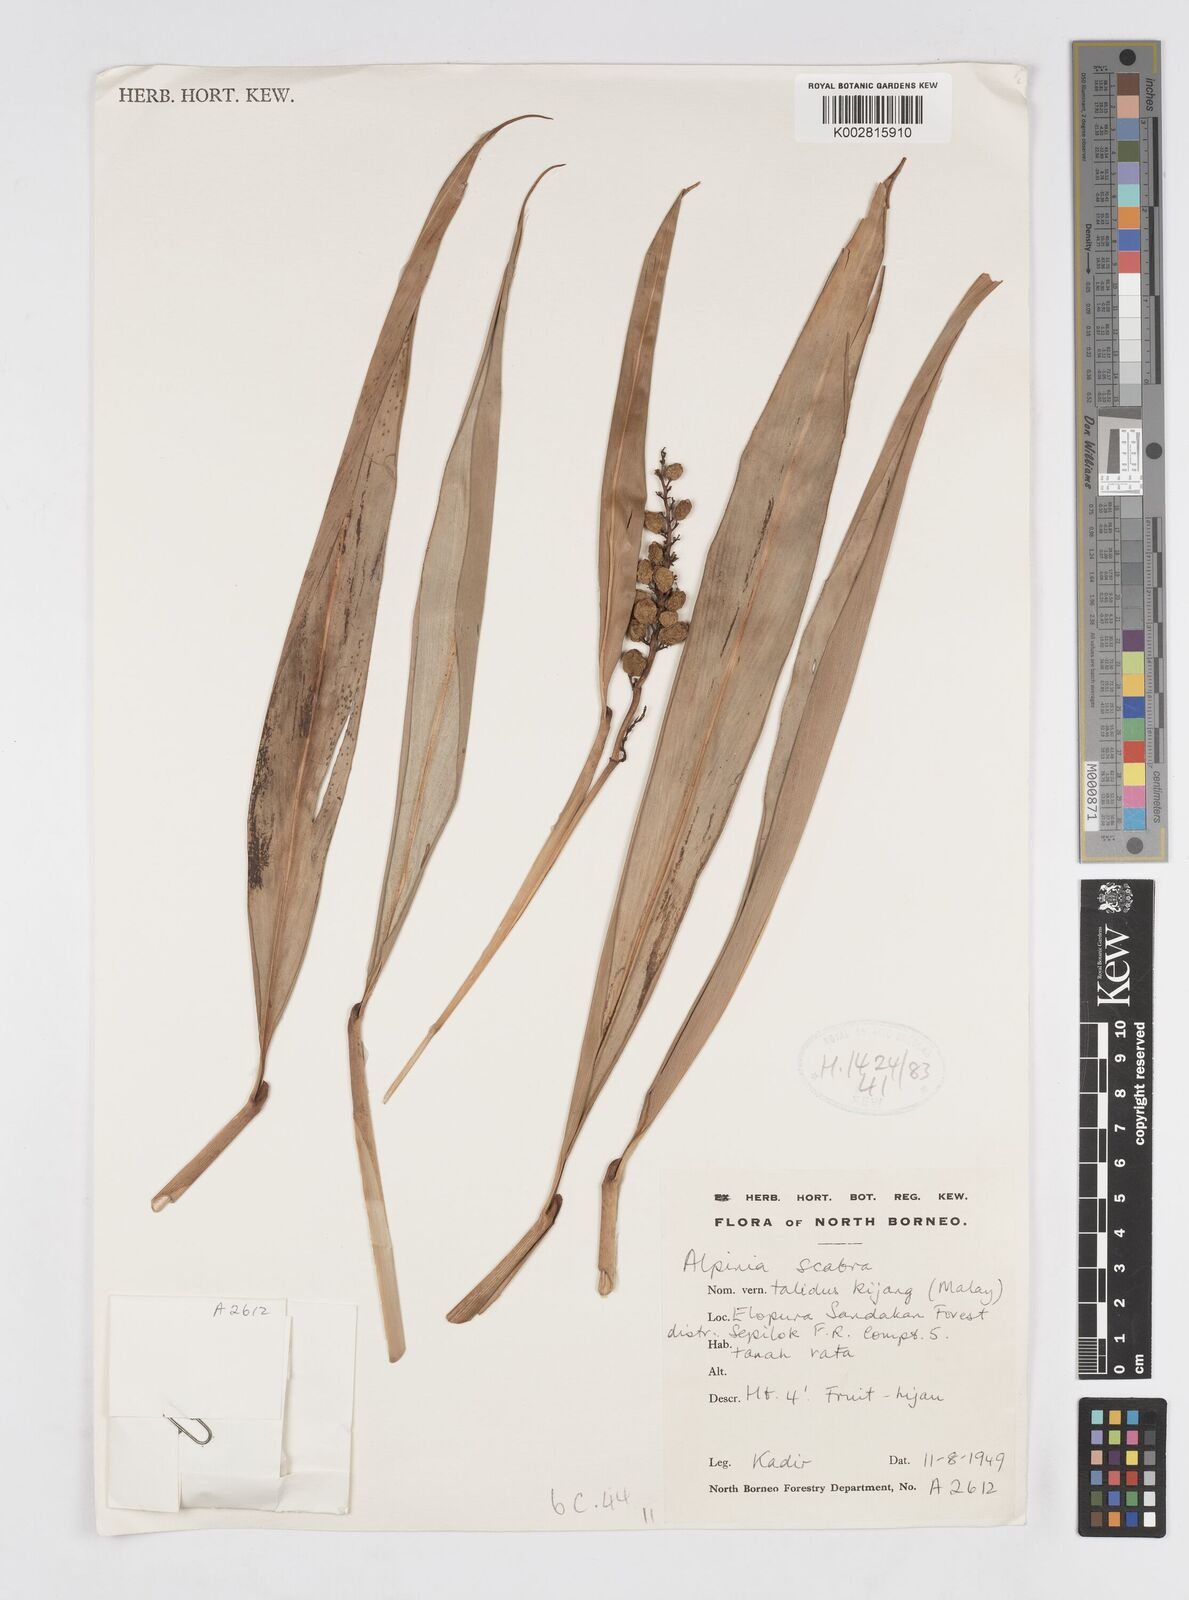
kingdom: Plantae
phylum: Tracheophyta
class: Liliopsida
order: Zingiberales
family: Zingiberaceae
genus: Alpinia
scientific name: Alpinia aquatica
